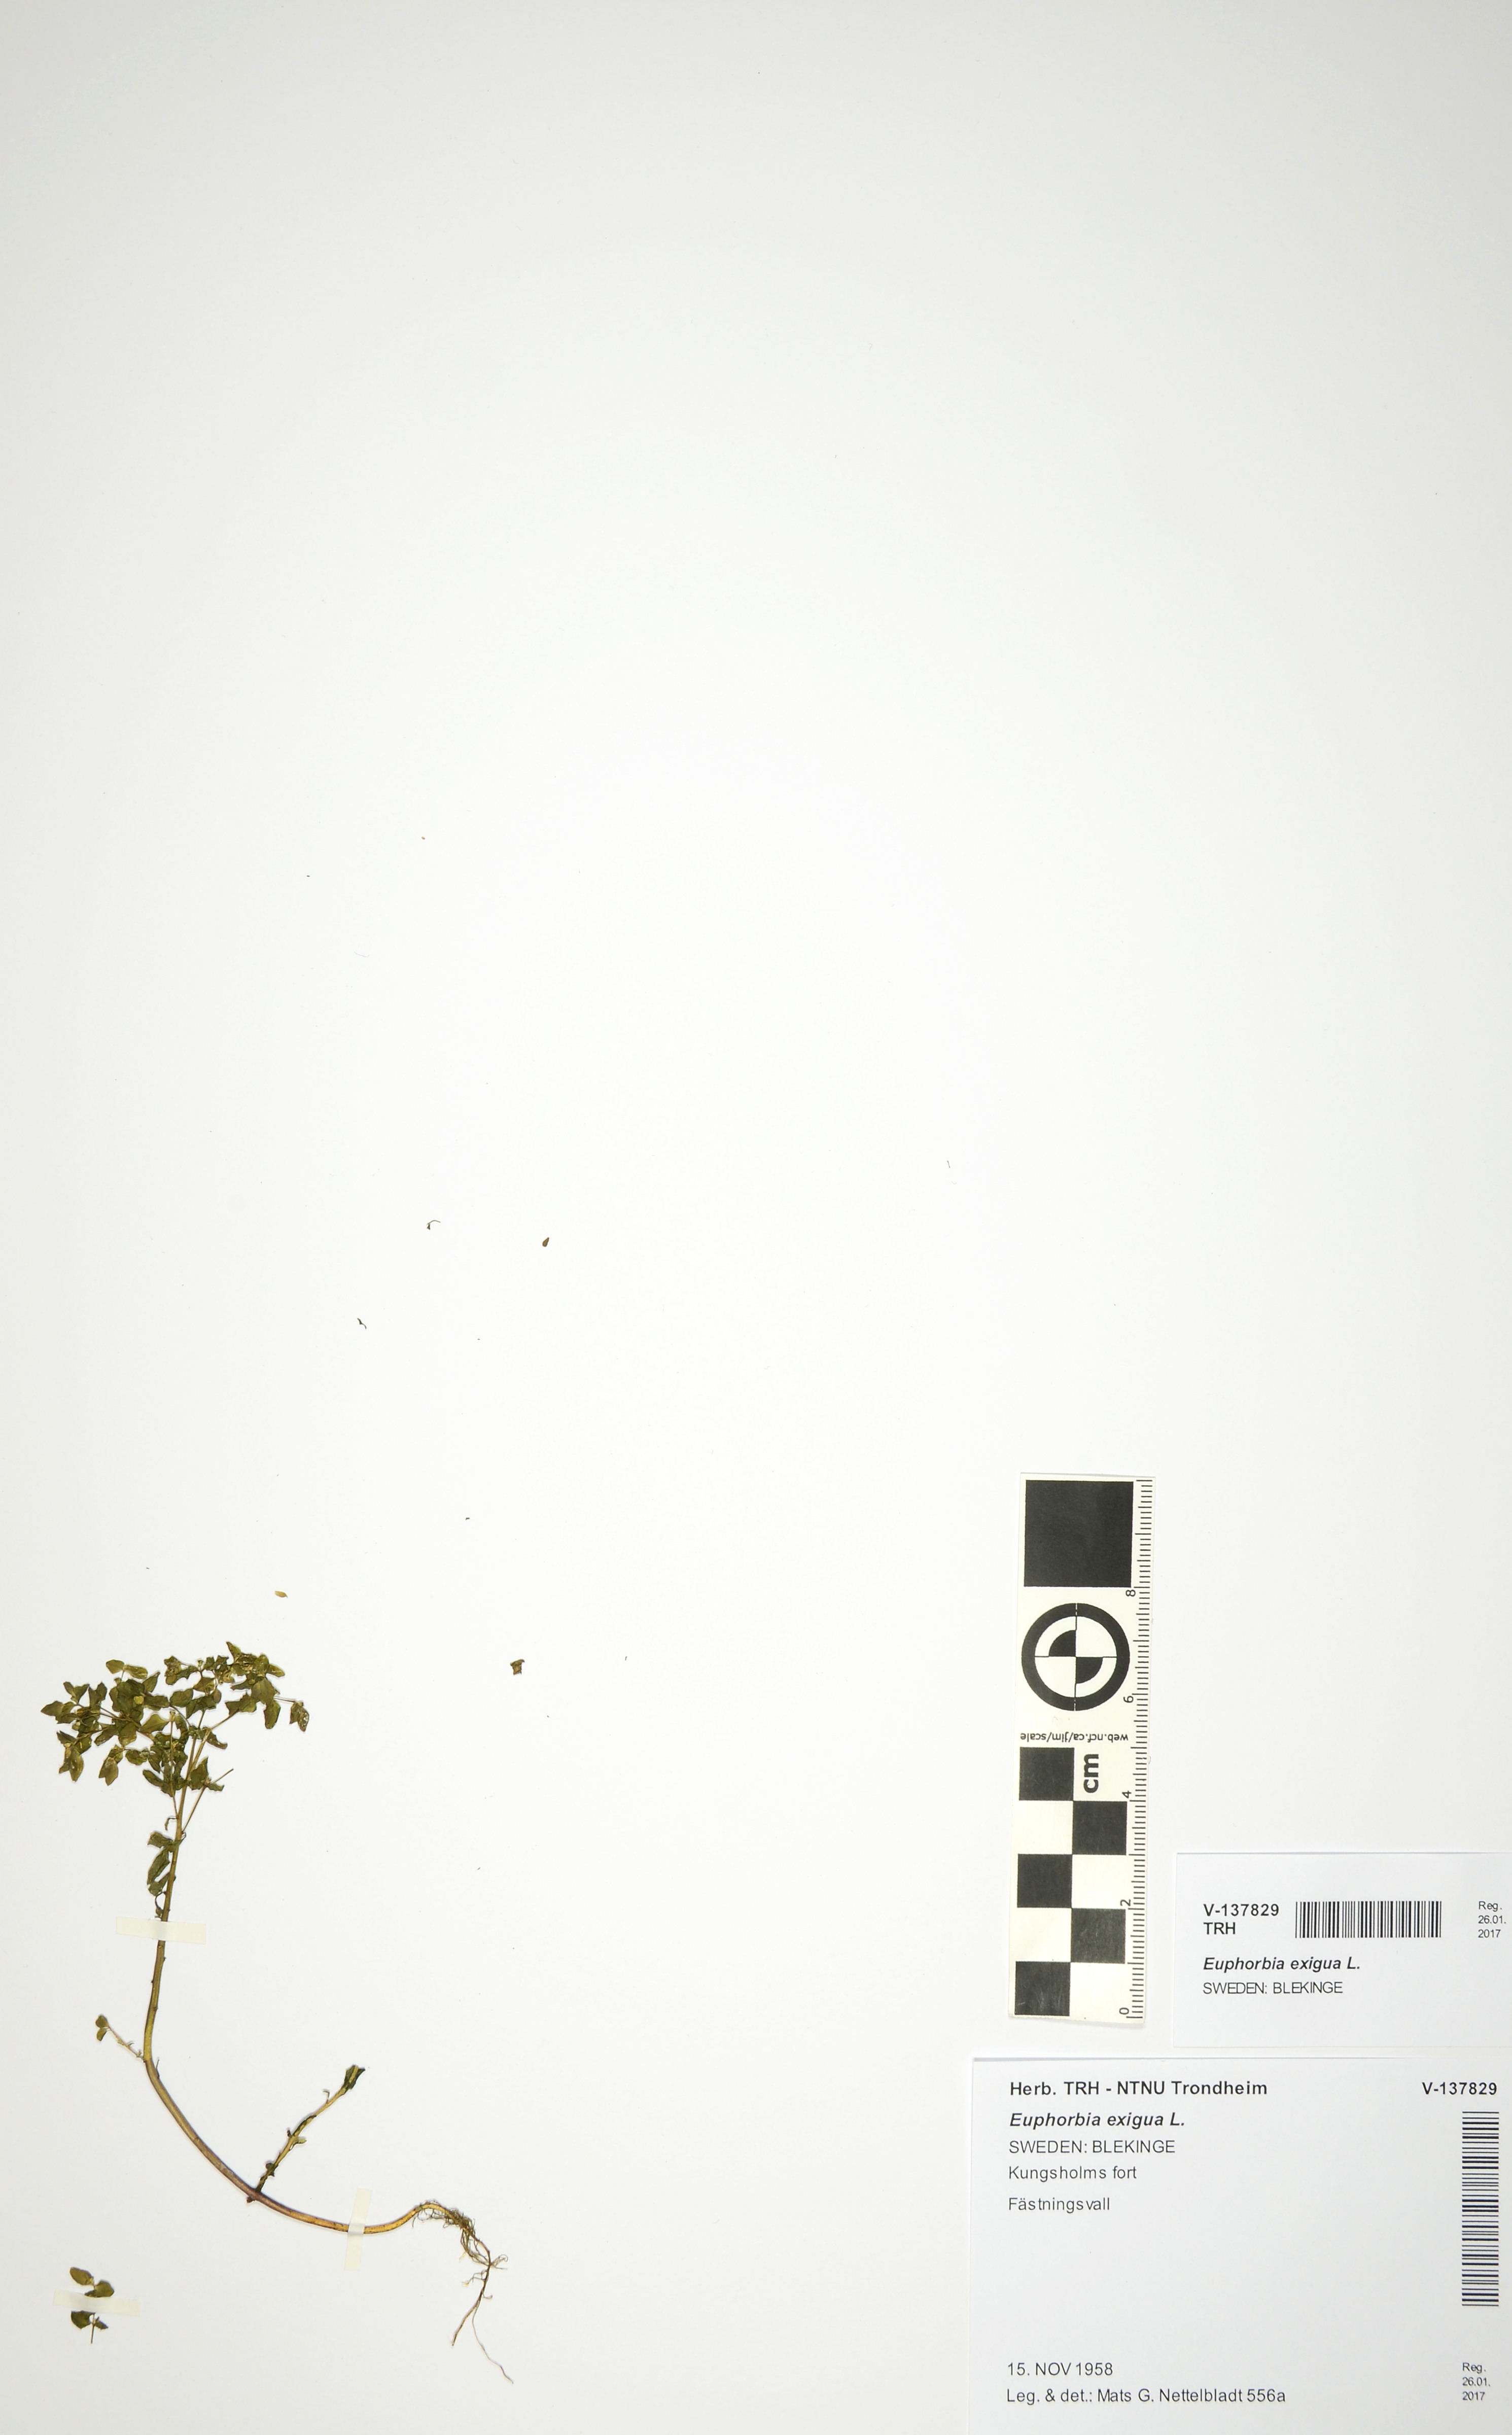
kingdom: Plantae
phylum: Tracheophyta
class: Magnoliopsida
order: Malpighiales
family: Euphorbiaceae
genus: Euphorbia
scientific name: Euphorbia exigua
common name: Dwarf spurge
